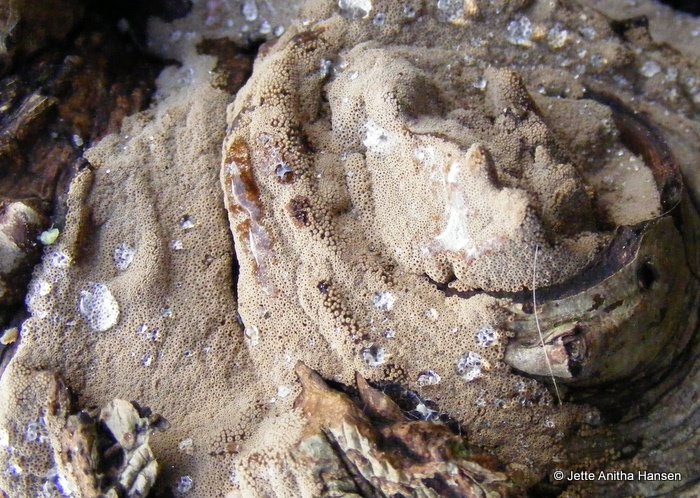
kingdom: Fungi
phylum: Basidiomycota
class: Agaricomycetes
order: Agaricales
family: Niaceae
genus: Merismodes
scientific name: Merismodes anomala
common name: almindelig læderskål
